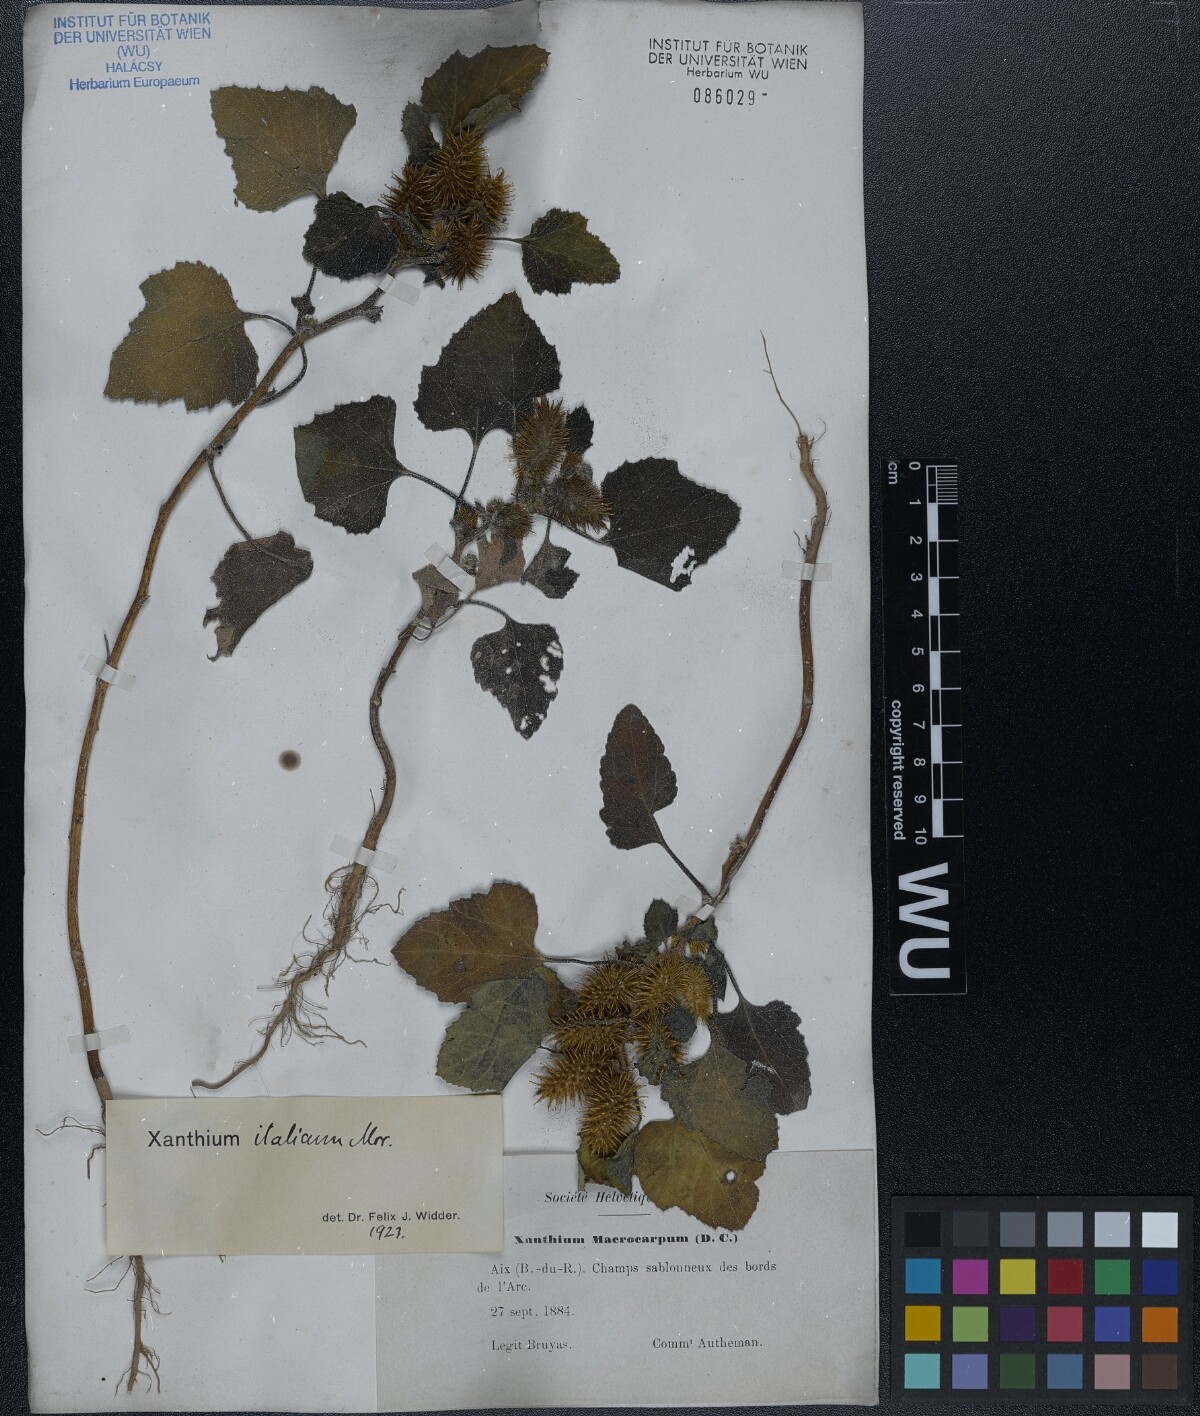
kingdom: Plantae
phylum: Tracheophyta
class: Magnoliopsida
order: Asterales
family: Asteraceae
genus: Xanthium
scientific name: Xanthium orientale
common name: Californian burr
